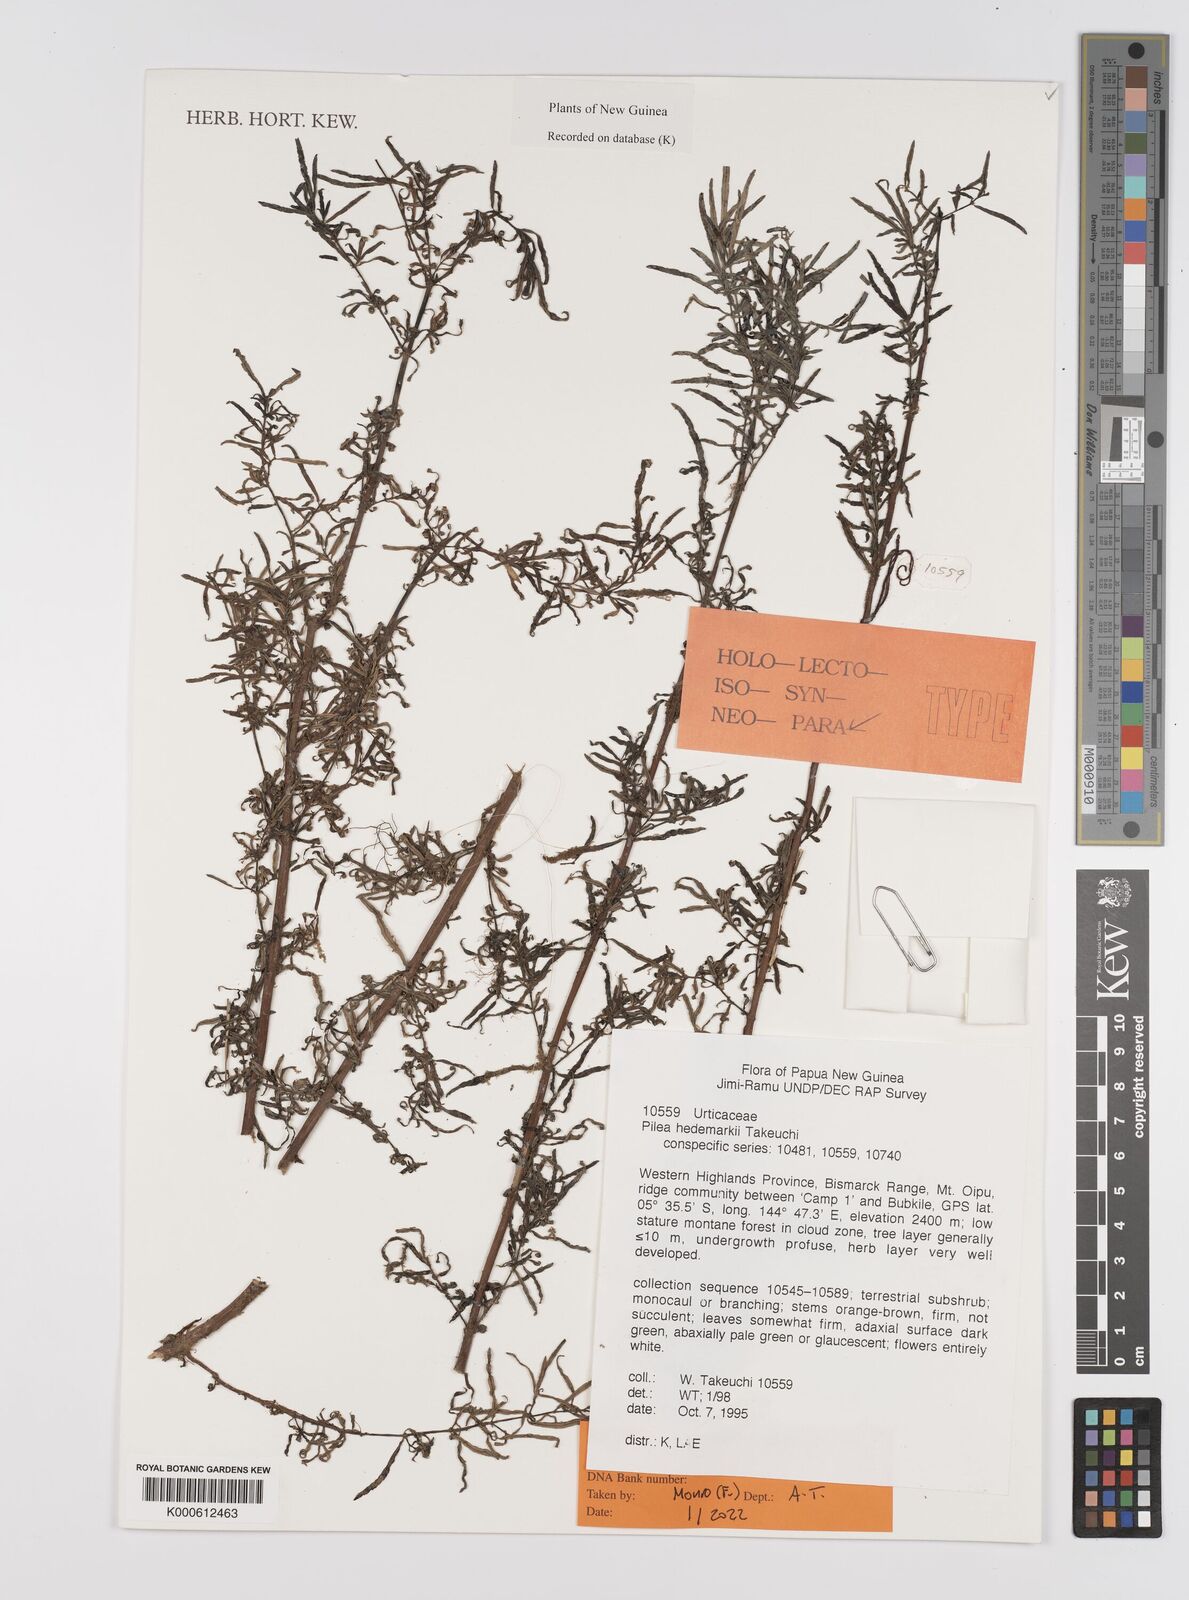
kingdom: Plantae
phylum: Tracheophyta
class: Magnoliopsida
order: Rosales
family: Urticaceae
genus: Pilea
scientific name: Pilea hedemarkii
